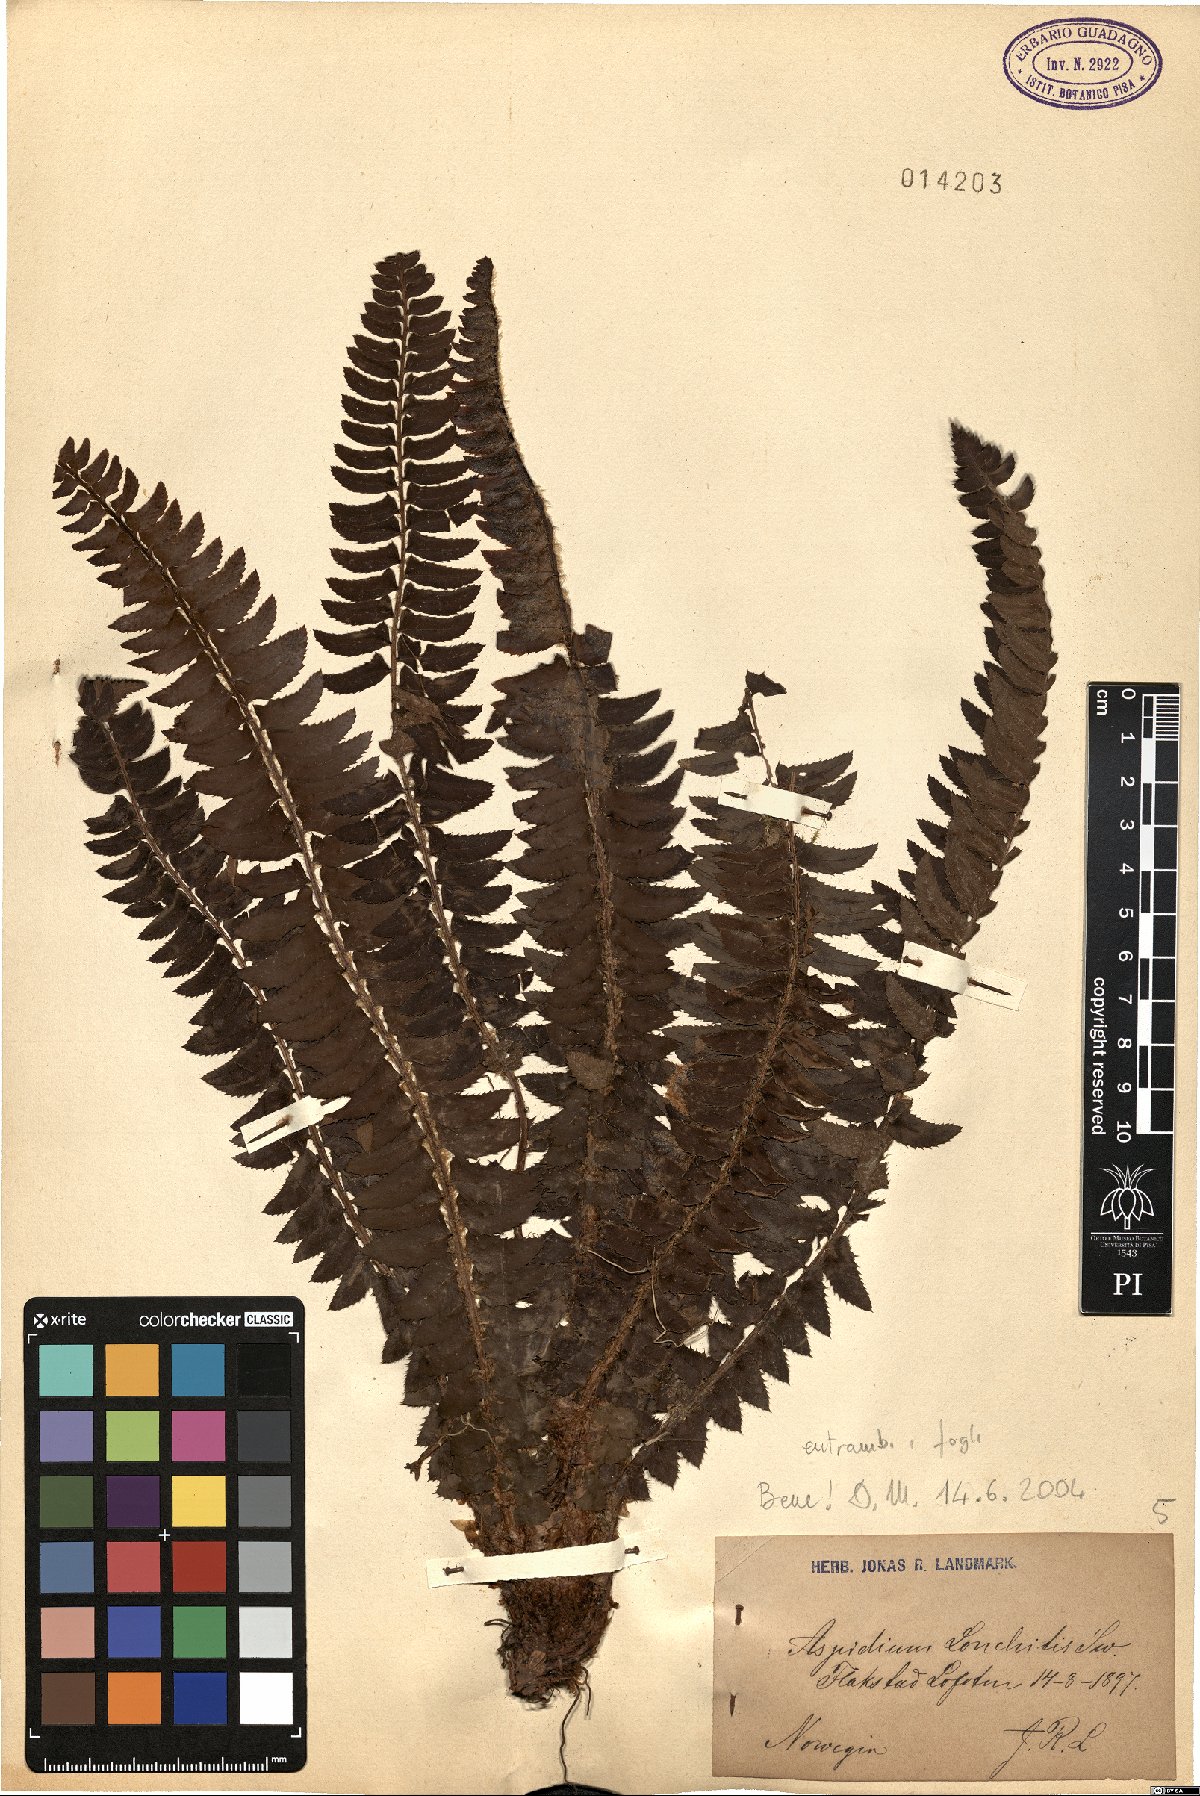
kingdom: Plantae
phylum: Tracheophyta
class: Polypodiopsida
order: Polypodiales
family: Dryopteridaceae
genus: Polystichum
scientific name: Polystichum lonchitis
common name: Holly fern
